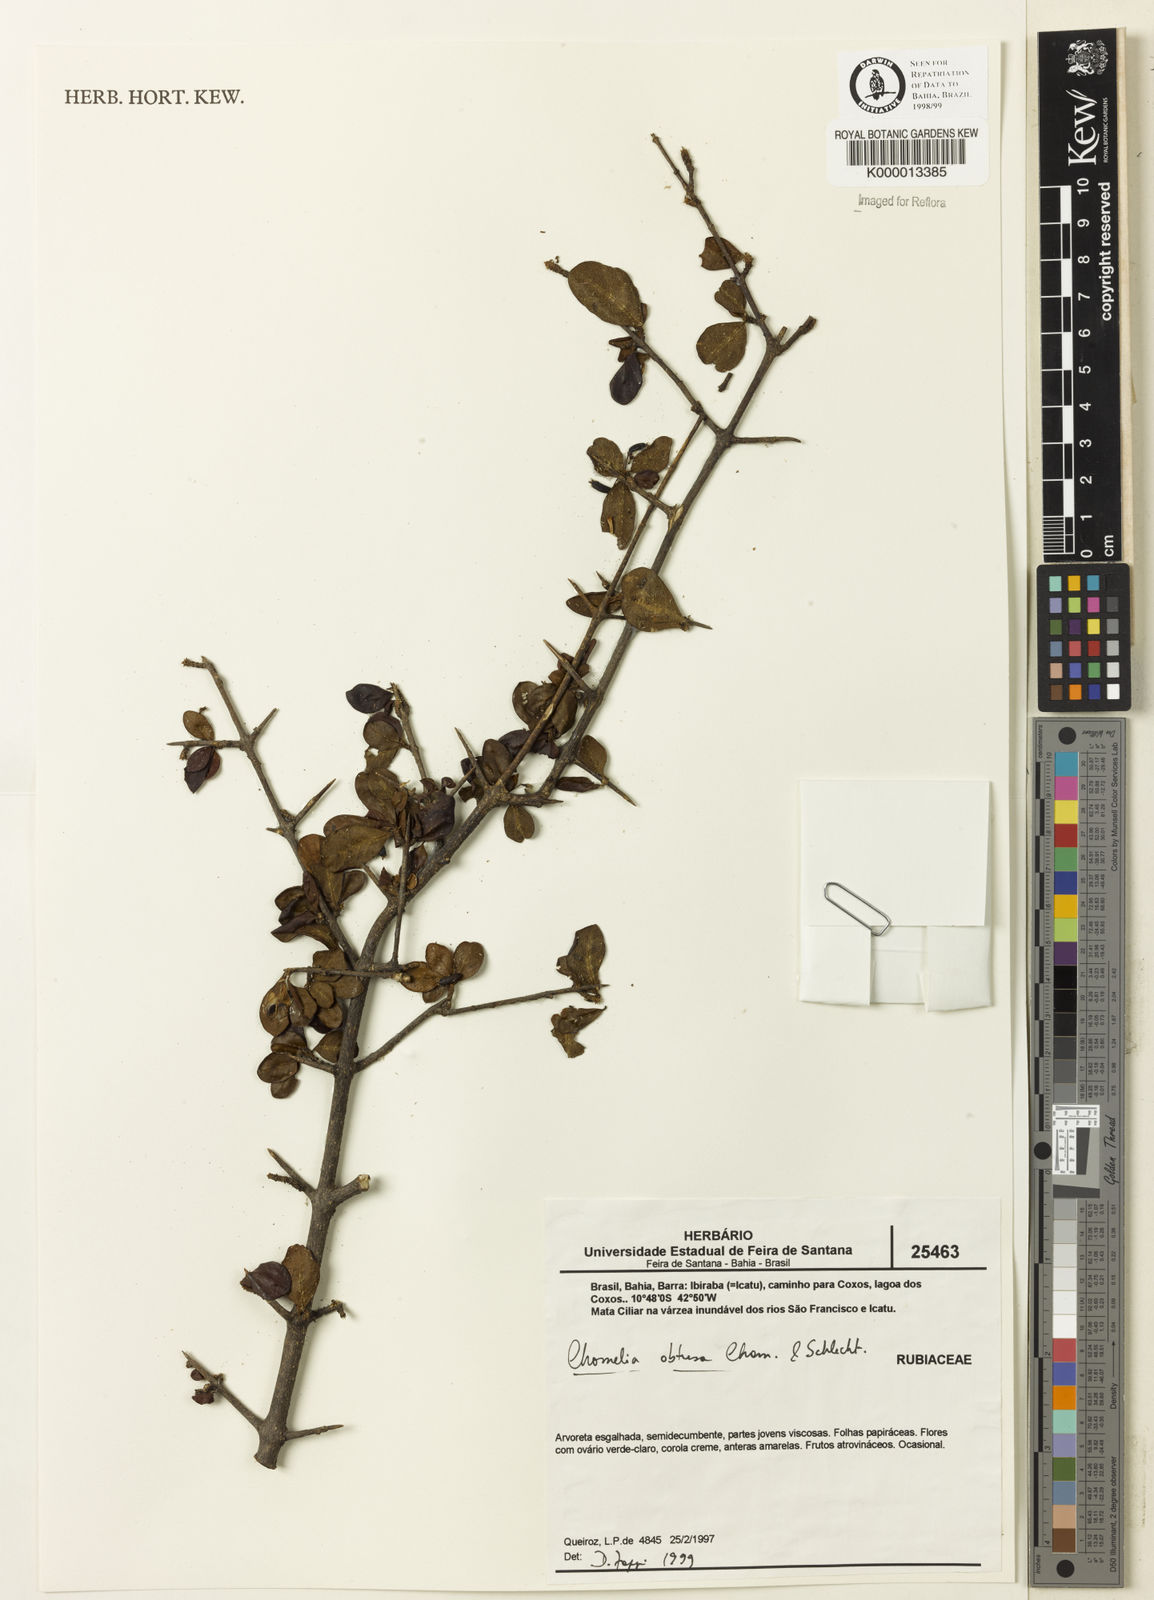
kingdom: Plantae
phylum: Tracheophyta
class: Magnoliopsida
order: Gentianales
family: Rubiaceae
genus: Chomelia
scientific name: Chomelia obtusa
